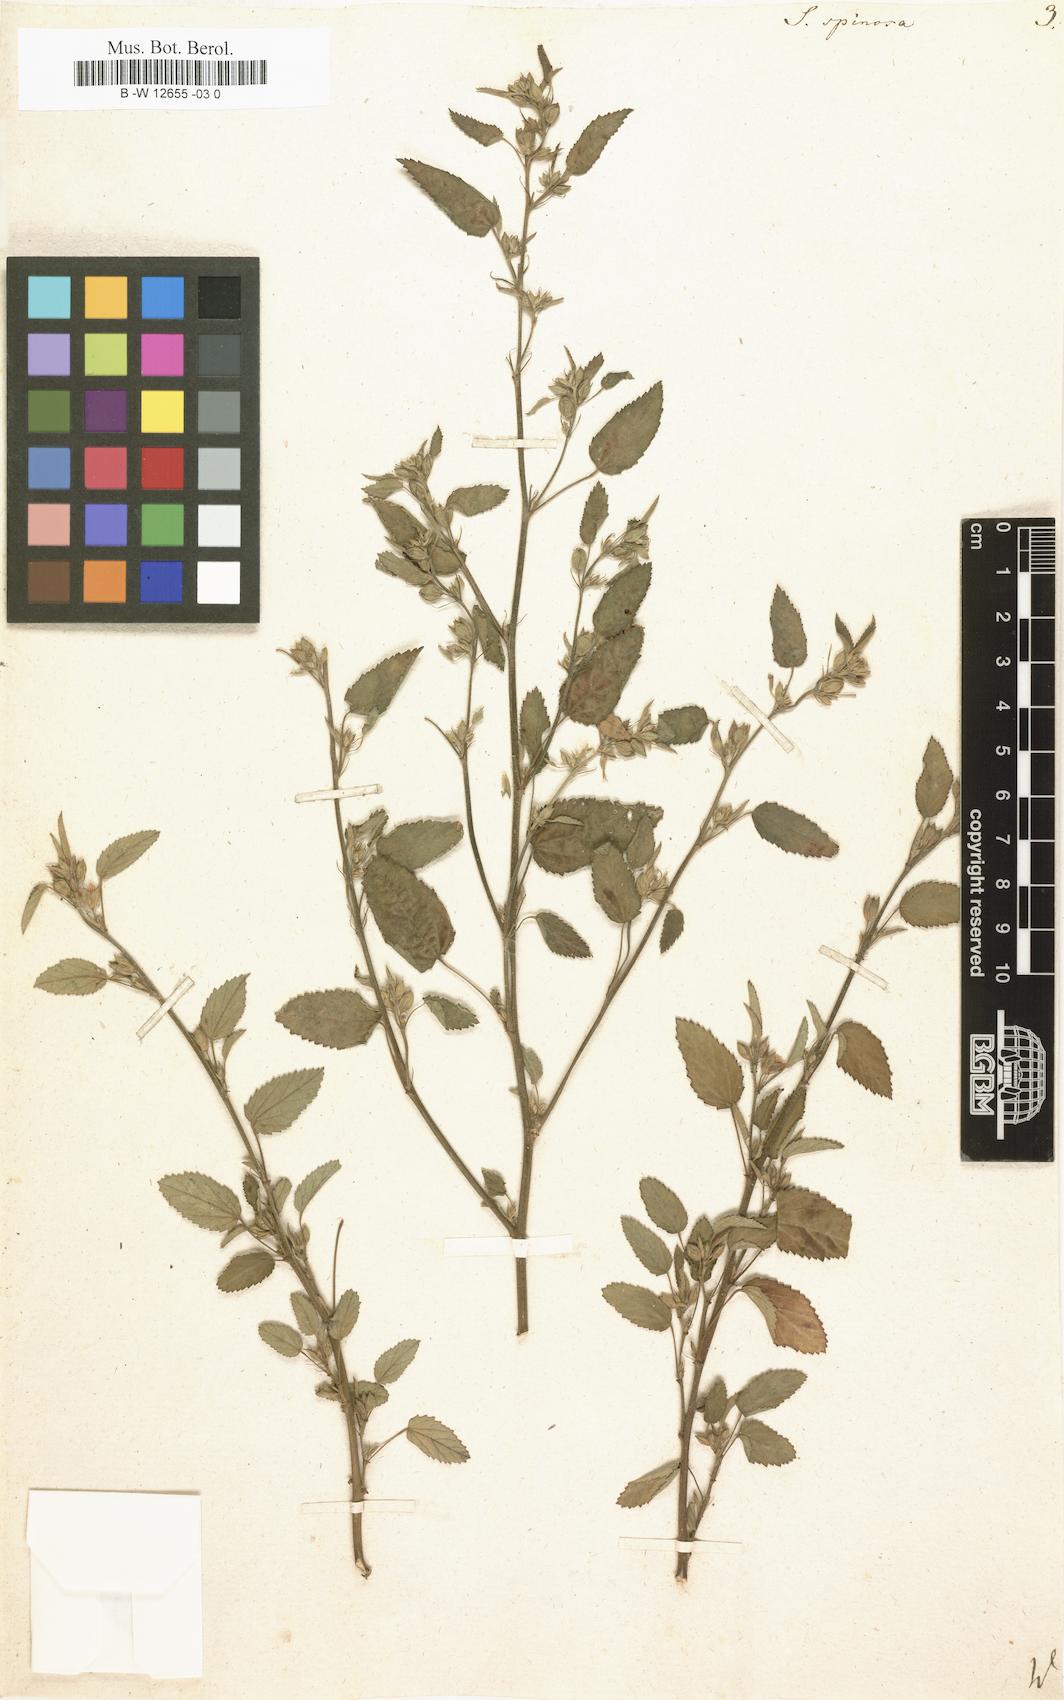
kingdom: Plantae
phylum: Tracheophyta
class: Magnoliopsida
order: Malvales
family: Malvaceae
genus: Sida
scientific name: Sida spinosa
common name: Prickly fanpetals
